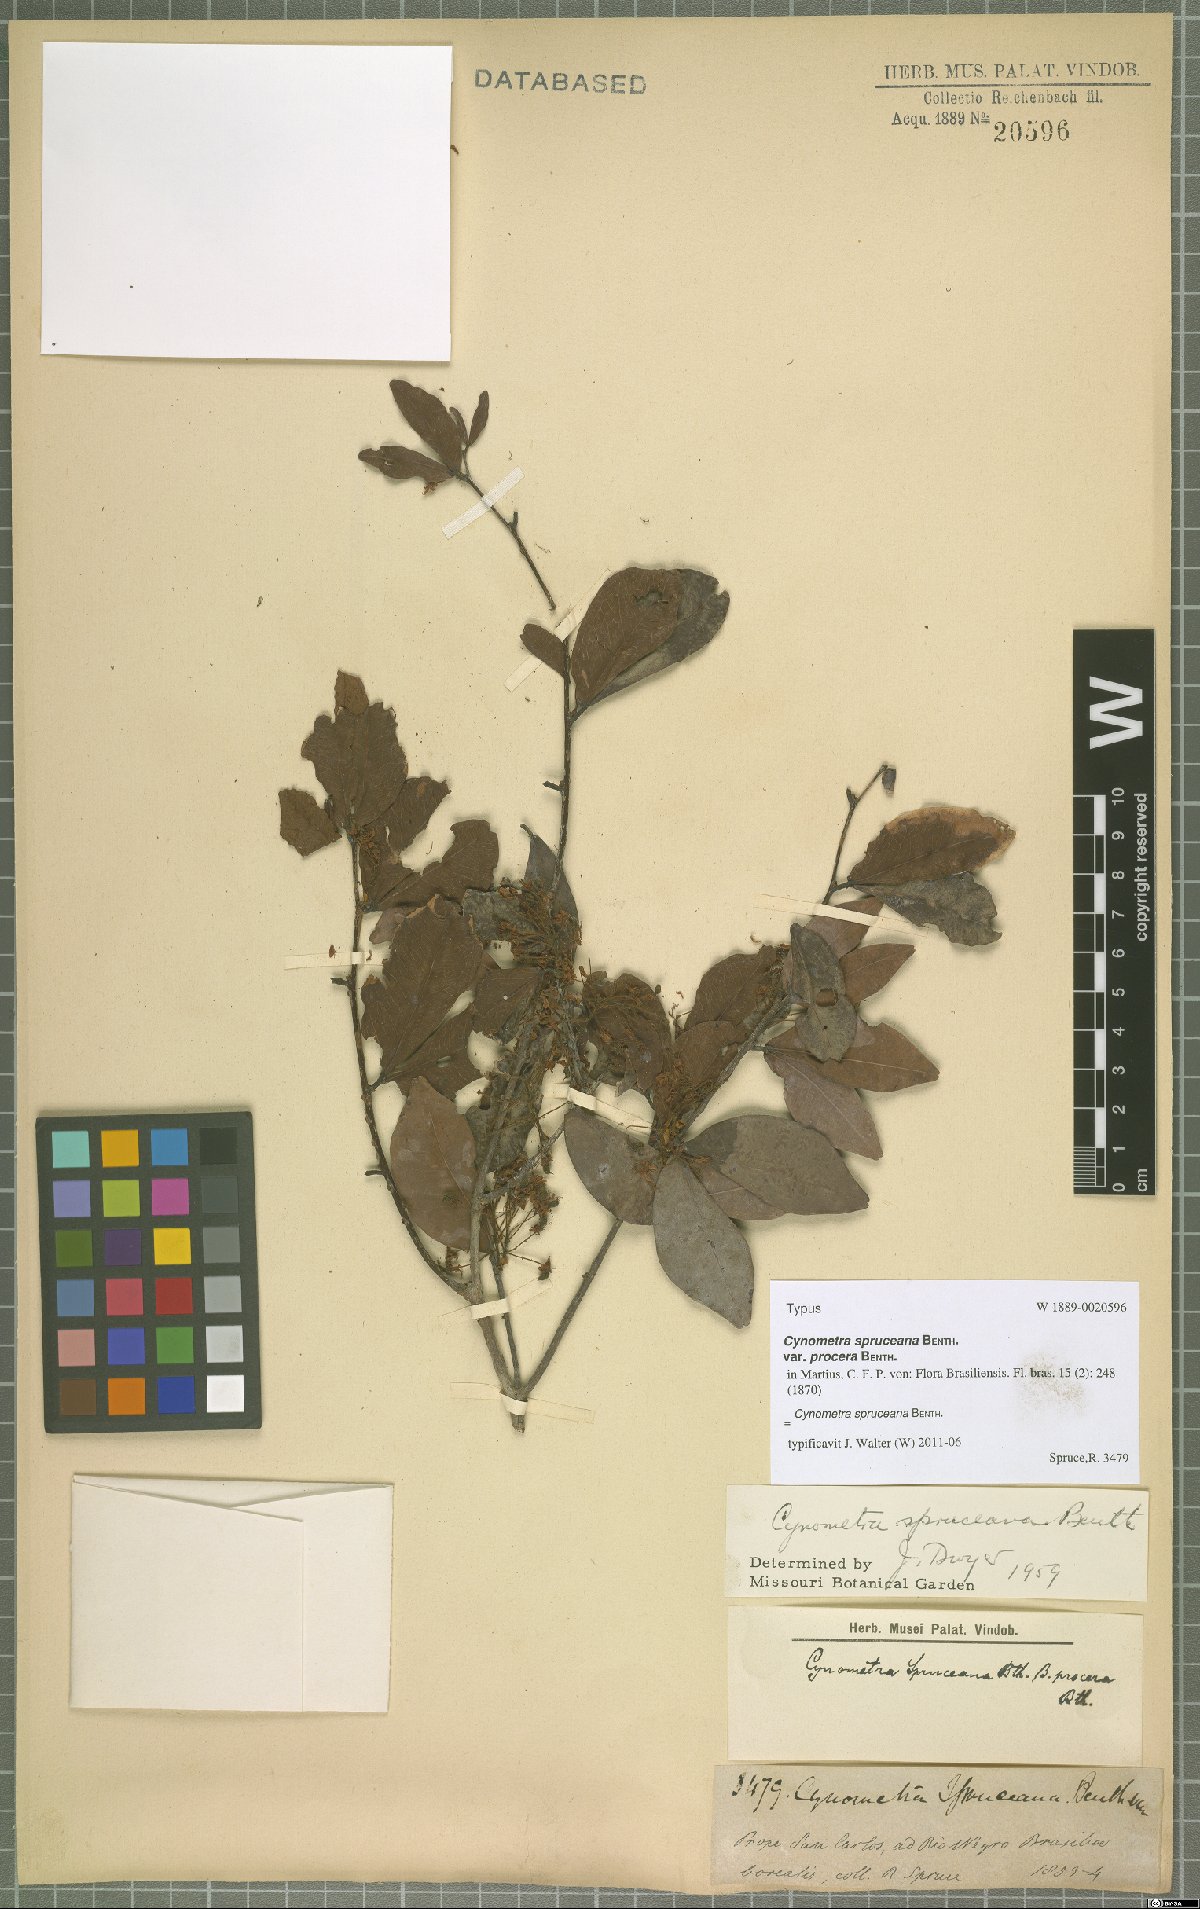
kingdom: Plantae
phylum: Tracheophyta
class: Magnoliopsida
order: Fabales
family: Fabaceae
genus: Cynometra
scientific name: Cynometra phaselocarpa
